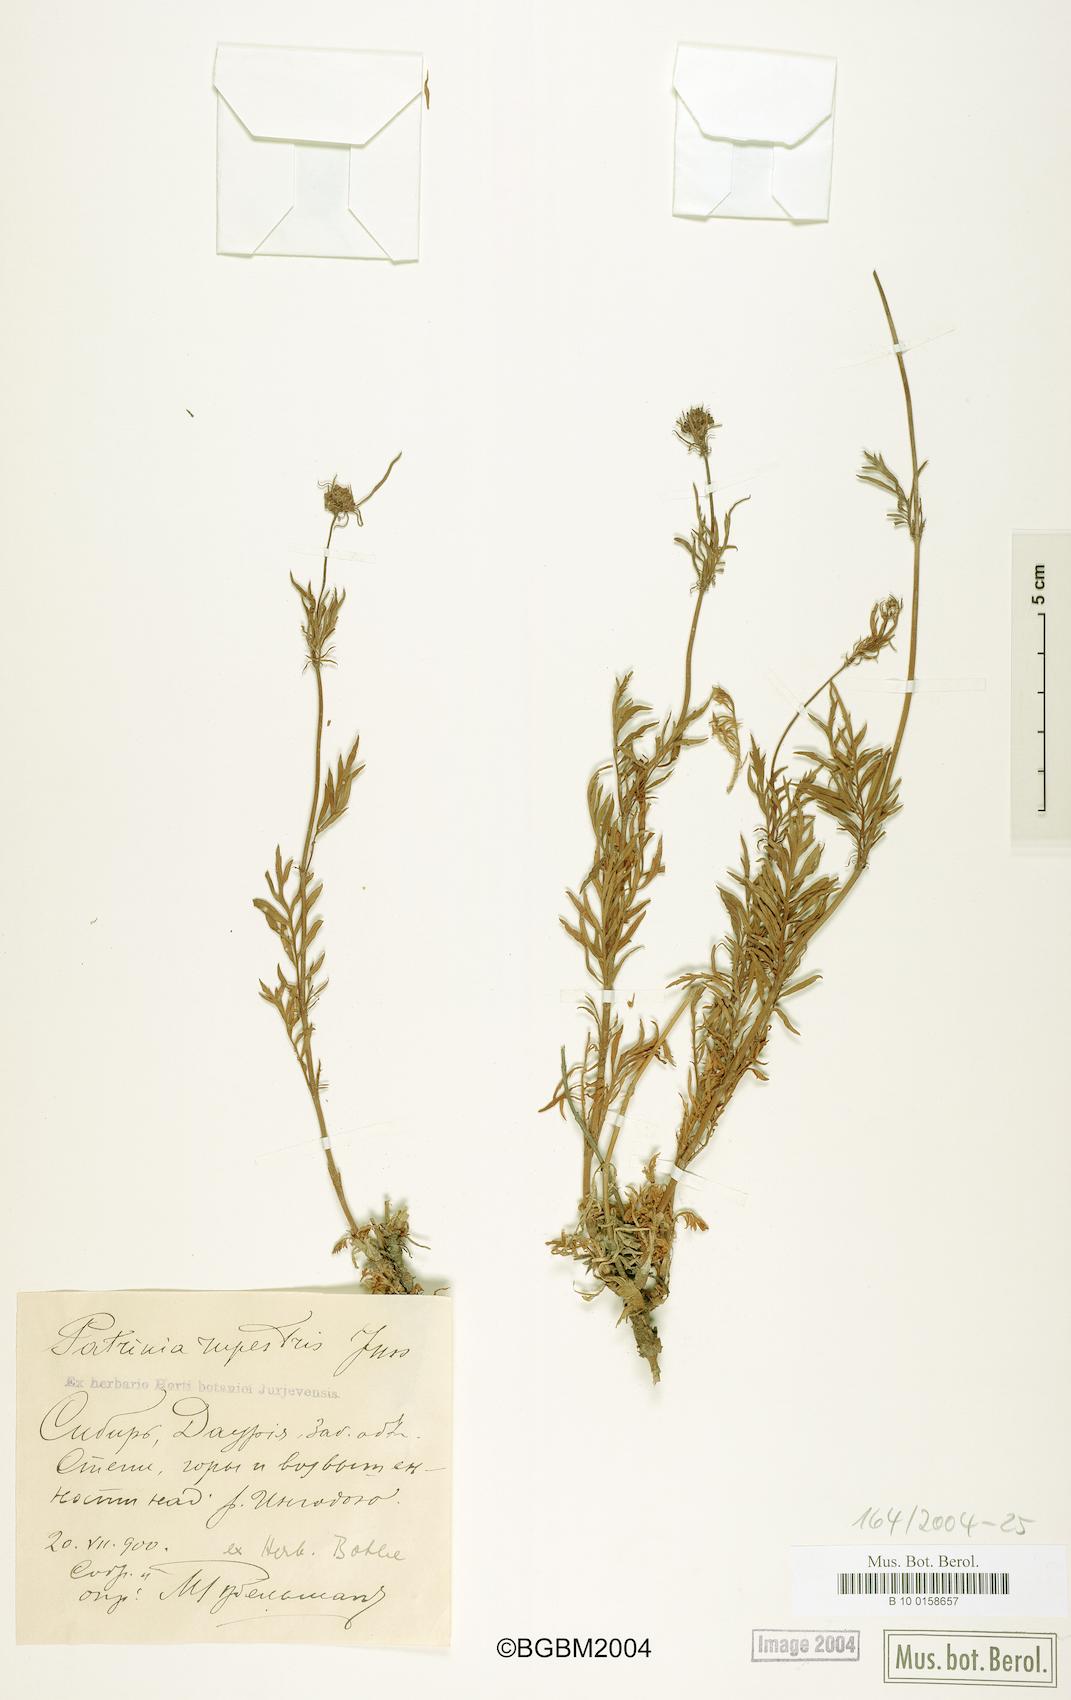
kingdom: Plantae
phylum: Tracheophyta
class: Magnoliopsida
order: Dipsacales
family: Caprifoliaceae
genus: Patrinia
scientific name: Patrinia rupestris
